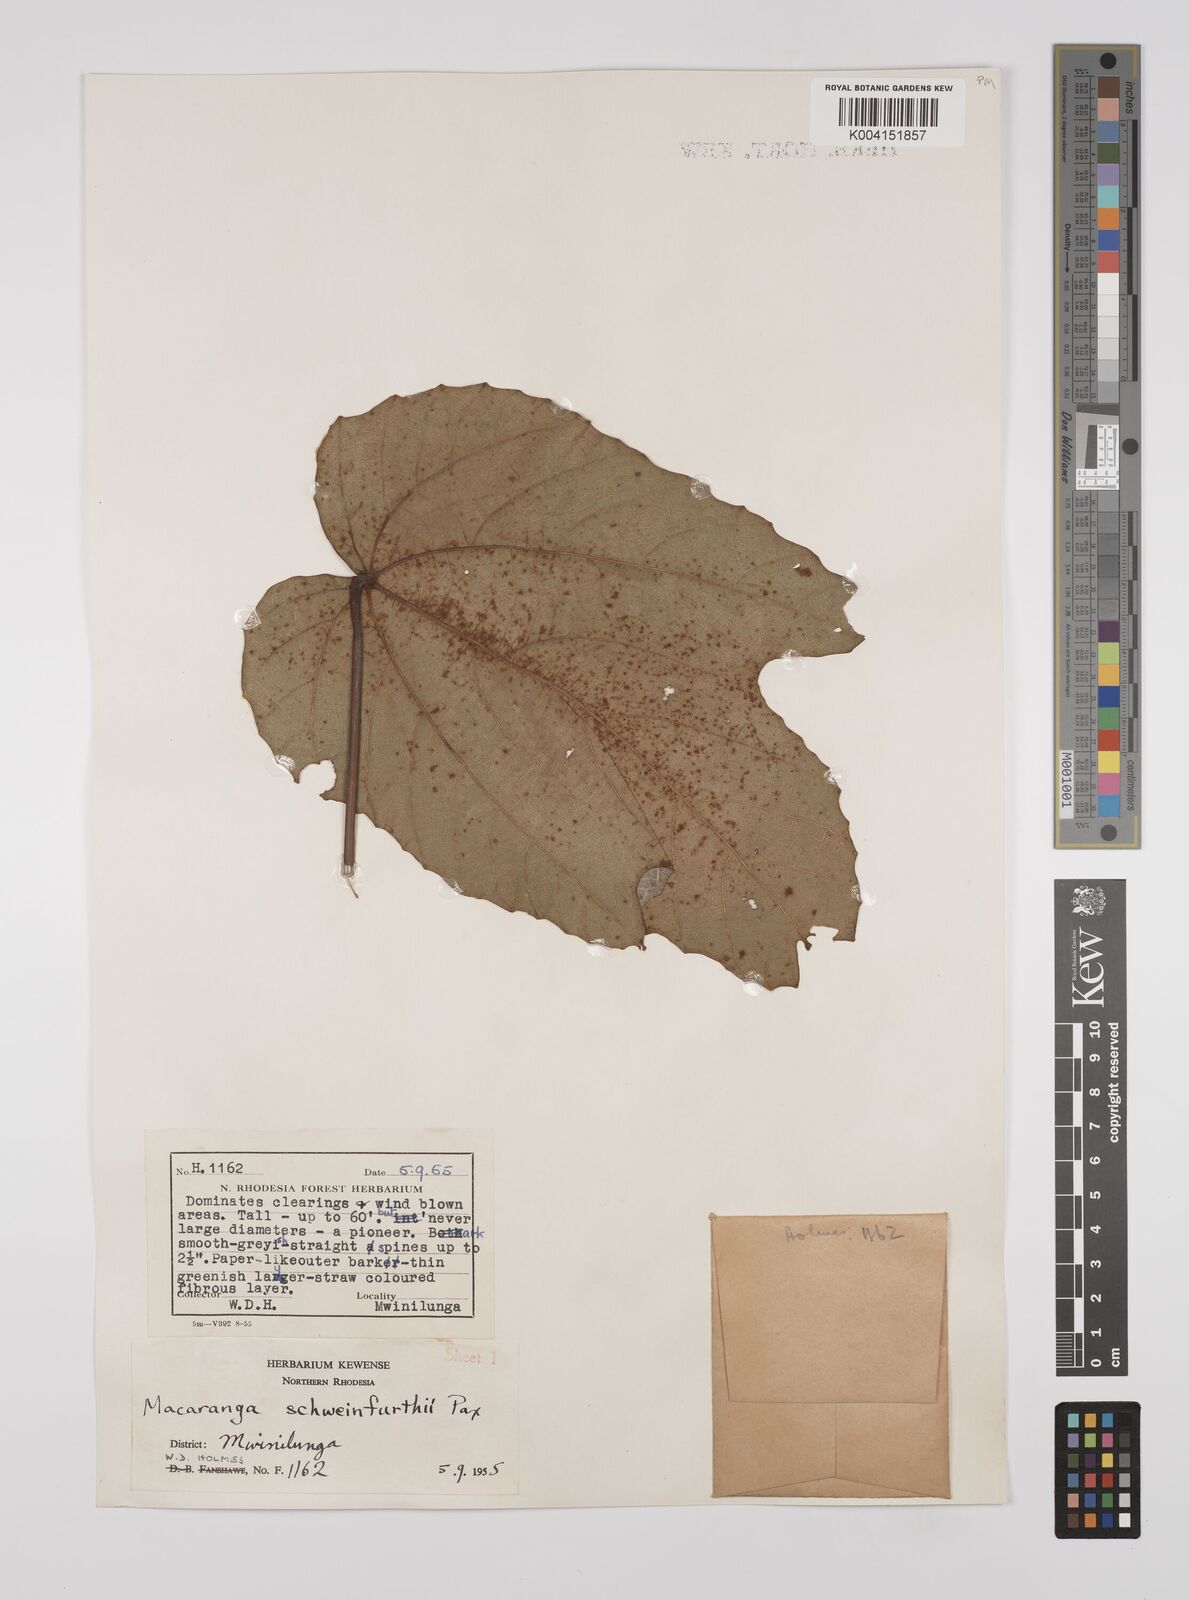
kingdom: Plantae
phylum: Tracheophyta
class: Magnoliopsida
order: Malpighiales
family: Euphorbiaceae
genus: Macaranga
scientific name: Macaranga schweinfurthii
